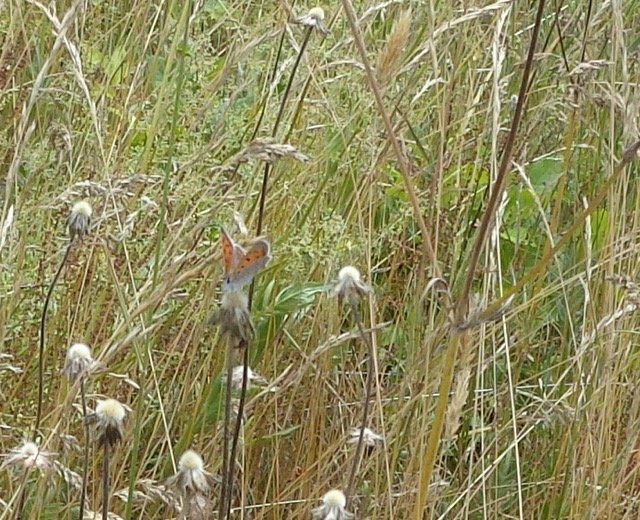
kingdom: Animalia
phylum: Arthropoda
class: Insecta
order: Lepidoptera
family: Lycaenidae
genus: Lycaena
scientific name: Lycaena phlaeas
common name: American Copper
